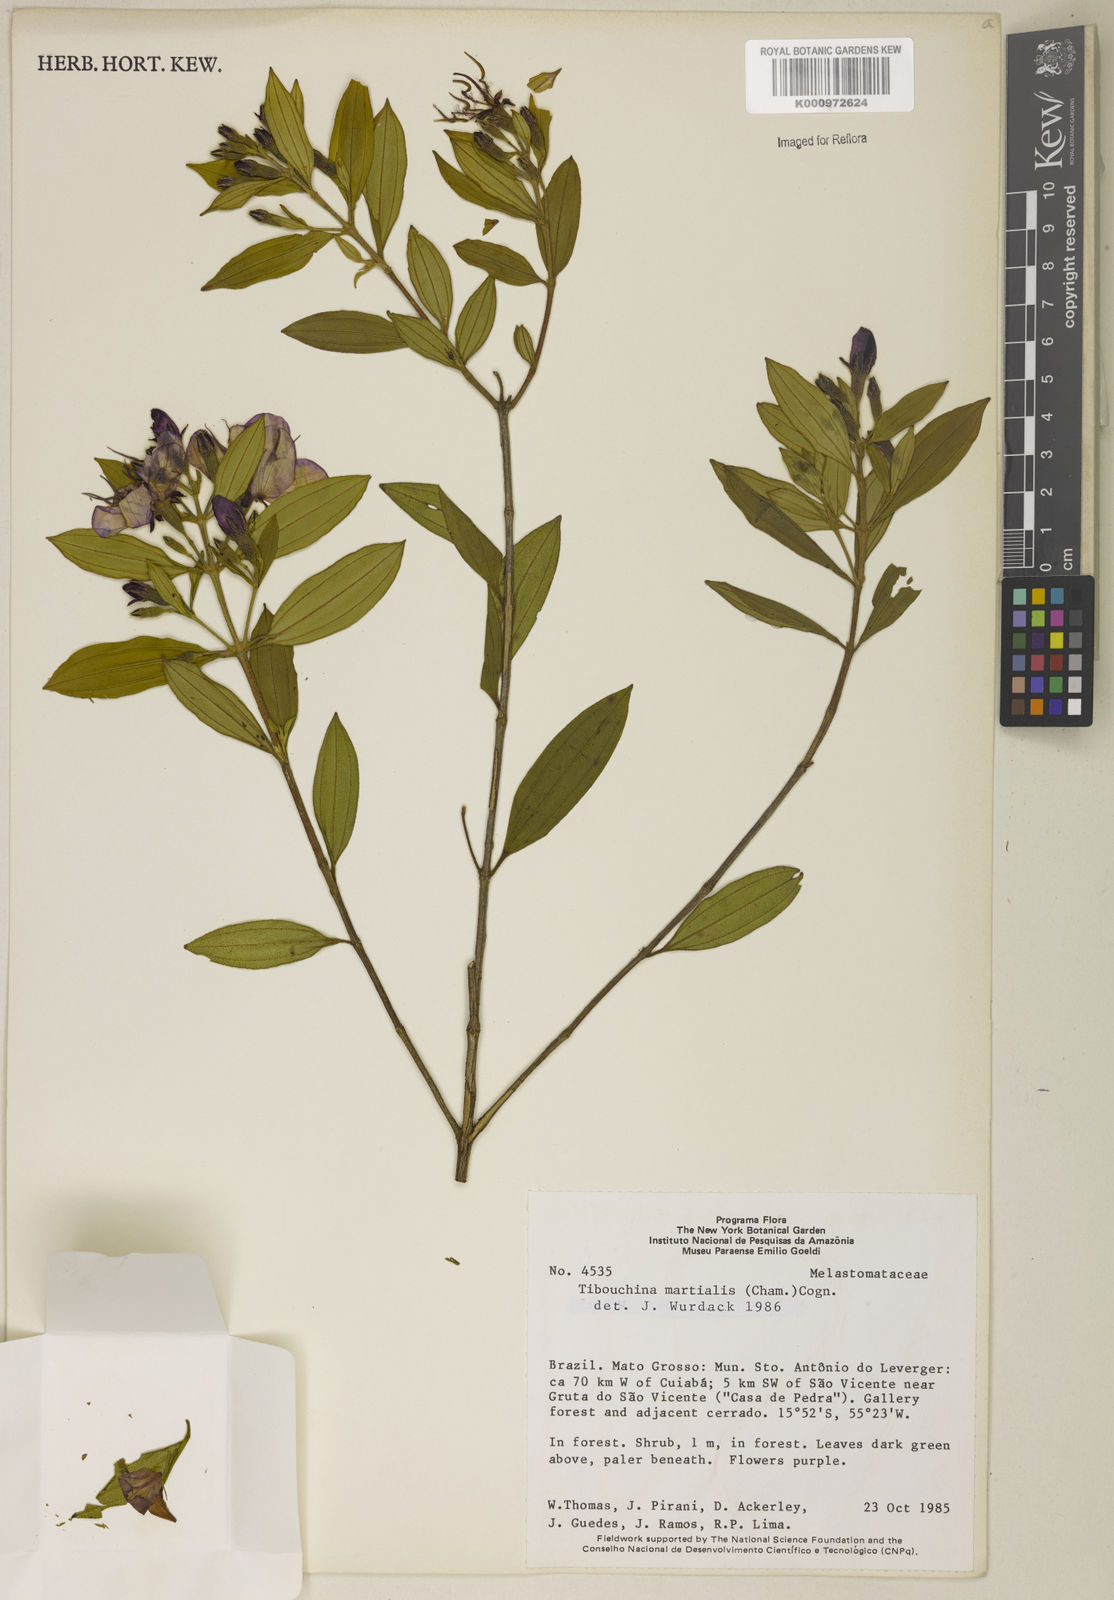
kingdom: Plantae
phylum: Tracheophyta
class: Magnoliopsida
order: Myrtales
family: Melastomataceae
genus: Pleroma
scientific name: Pleroma martiale
